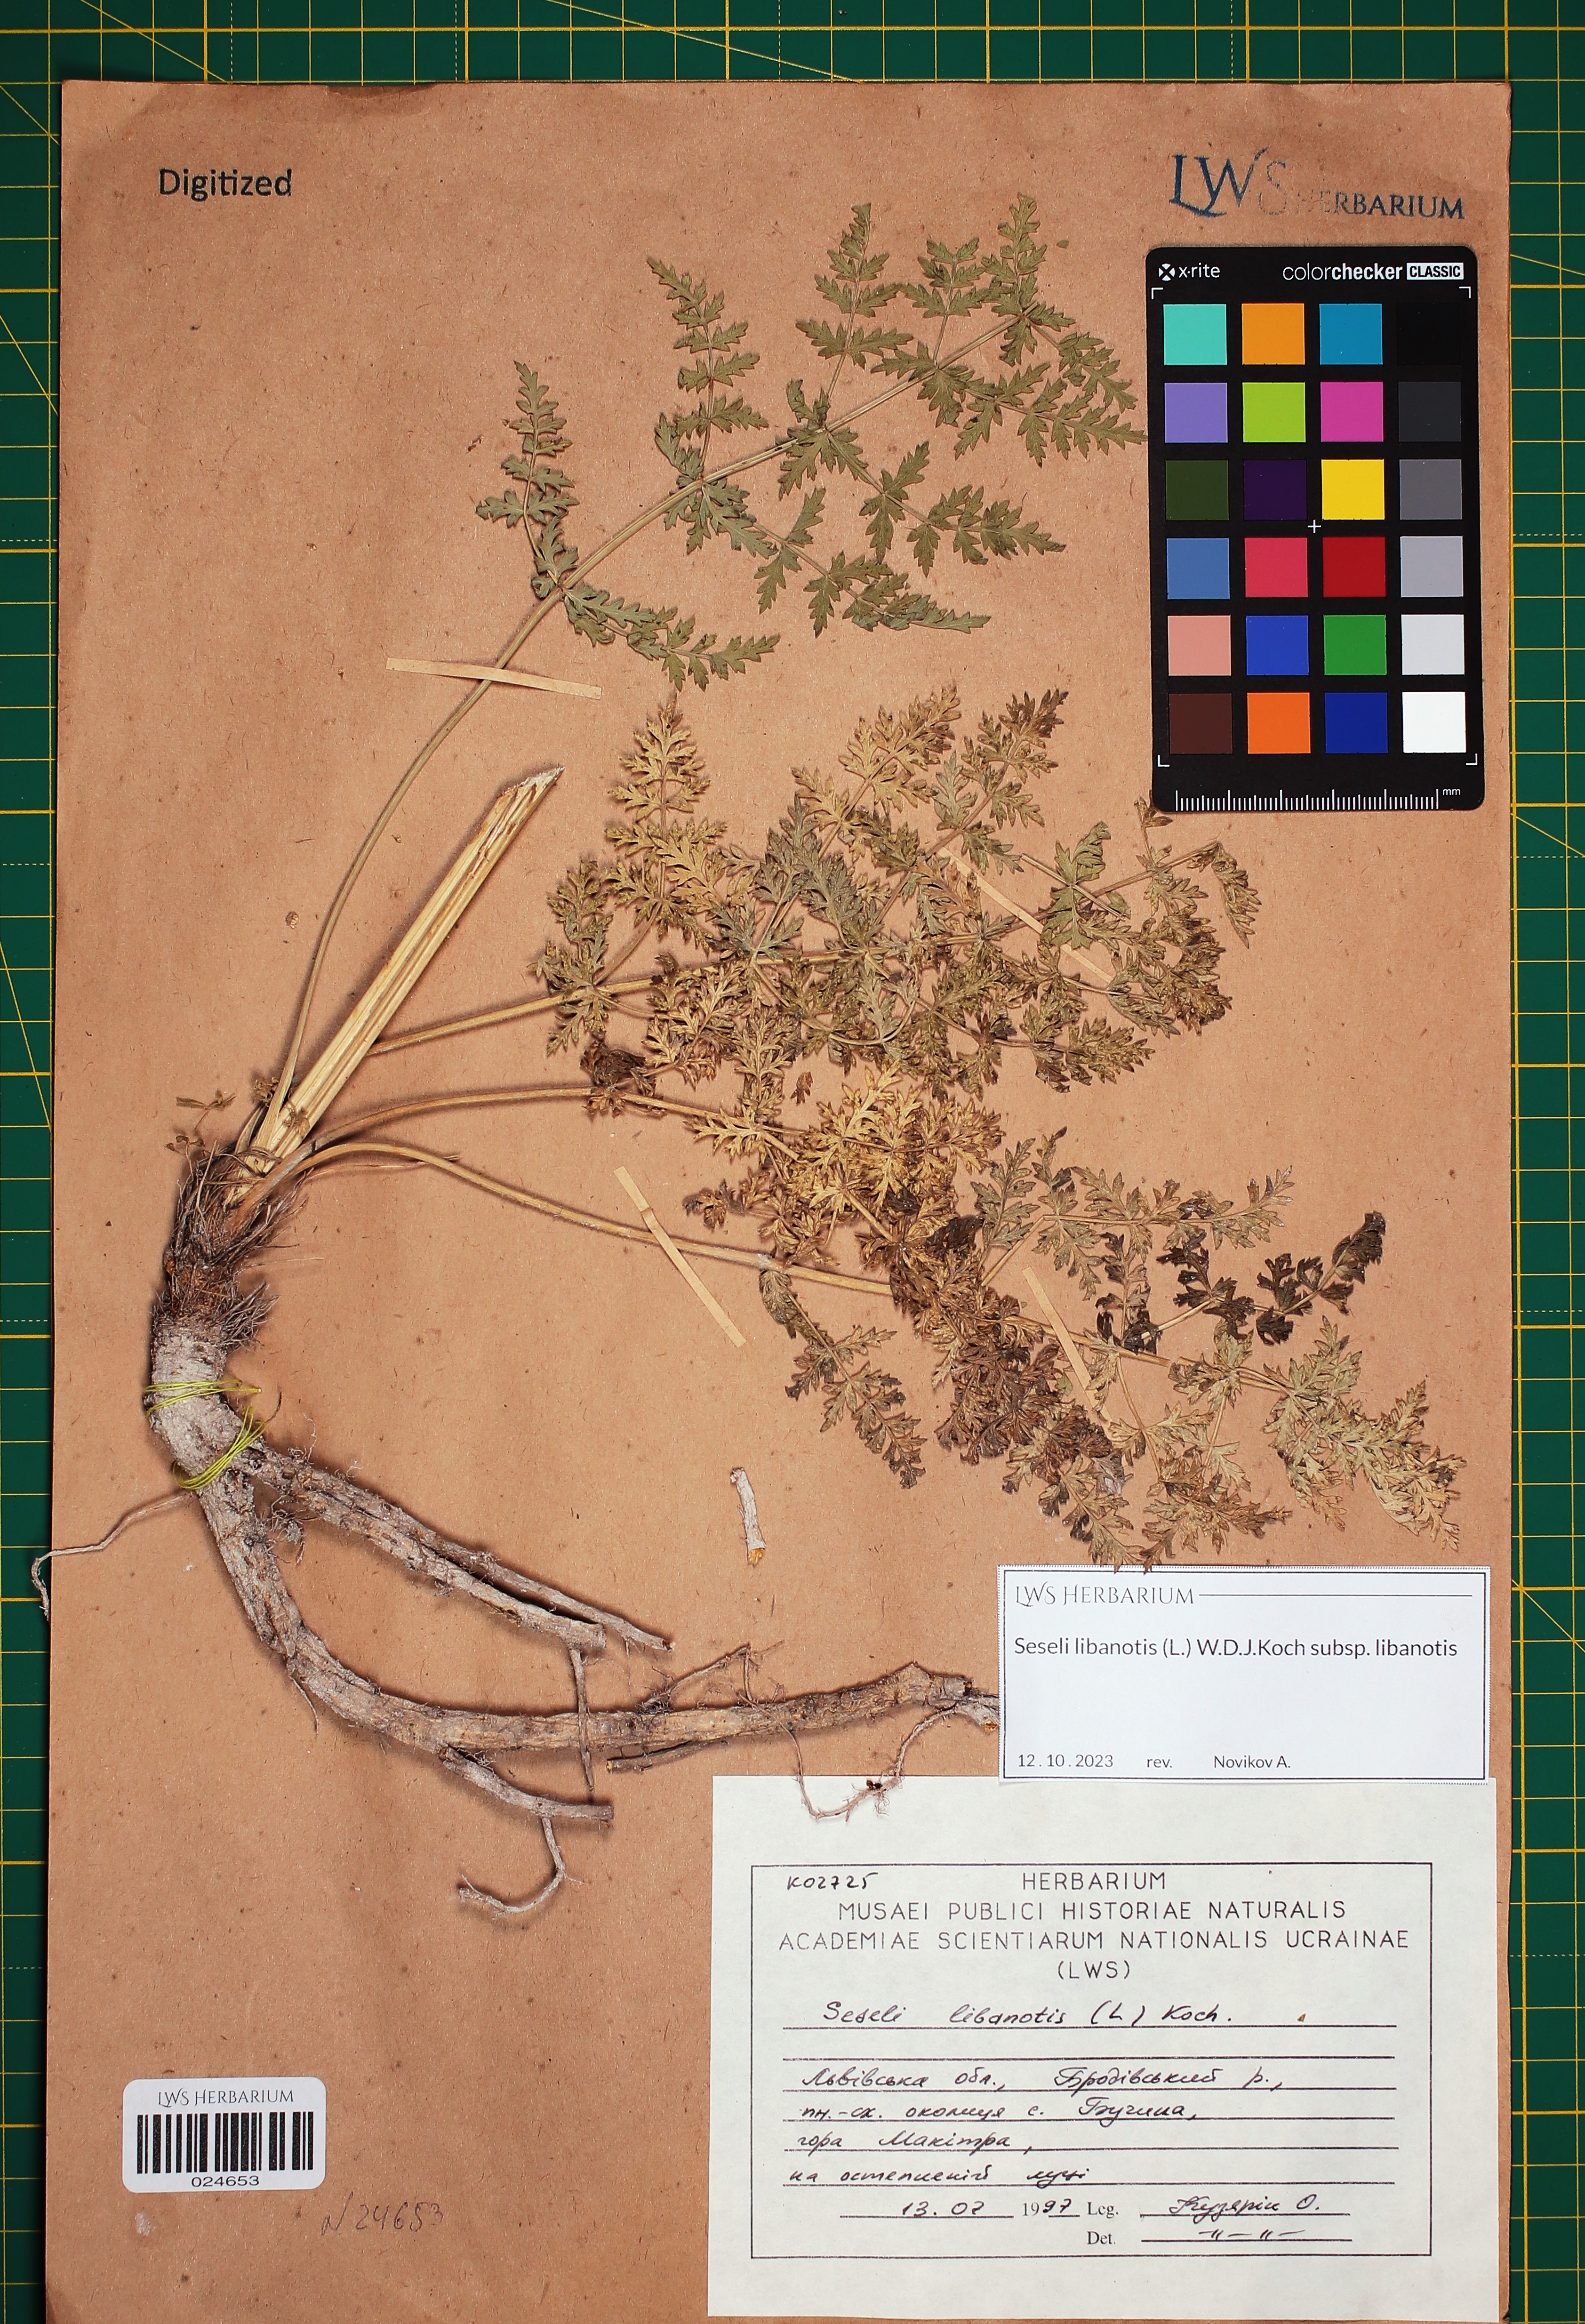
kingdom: Plantae
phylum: Tracheophyta
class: Magnoliopsida
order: Apiales
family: Apiaceae
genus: Seseli
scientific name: Seseli libanotis
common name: Mooncarrot
